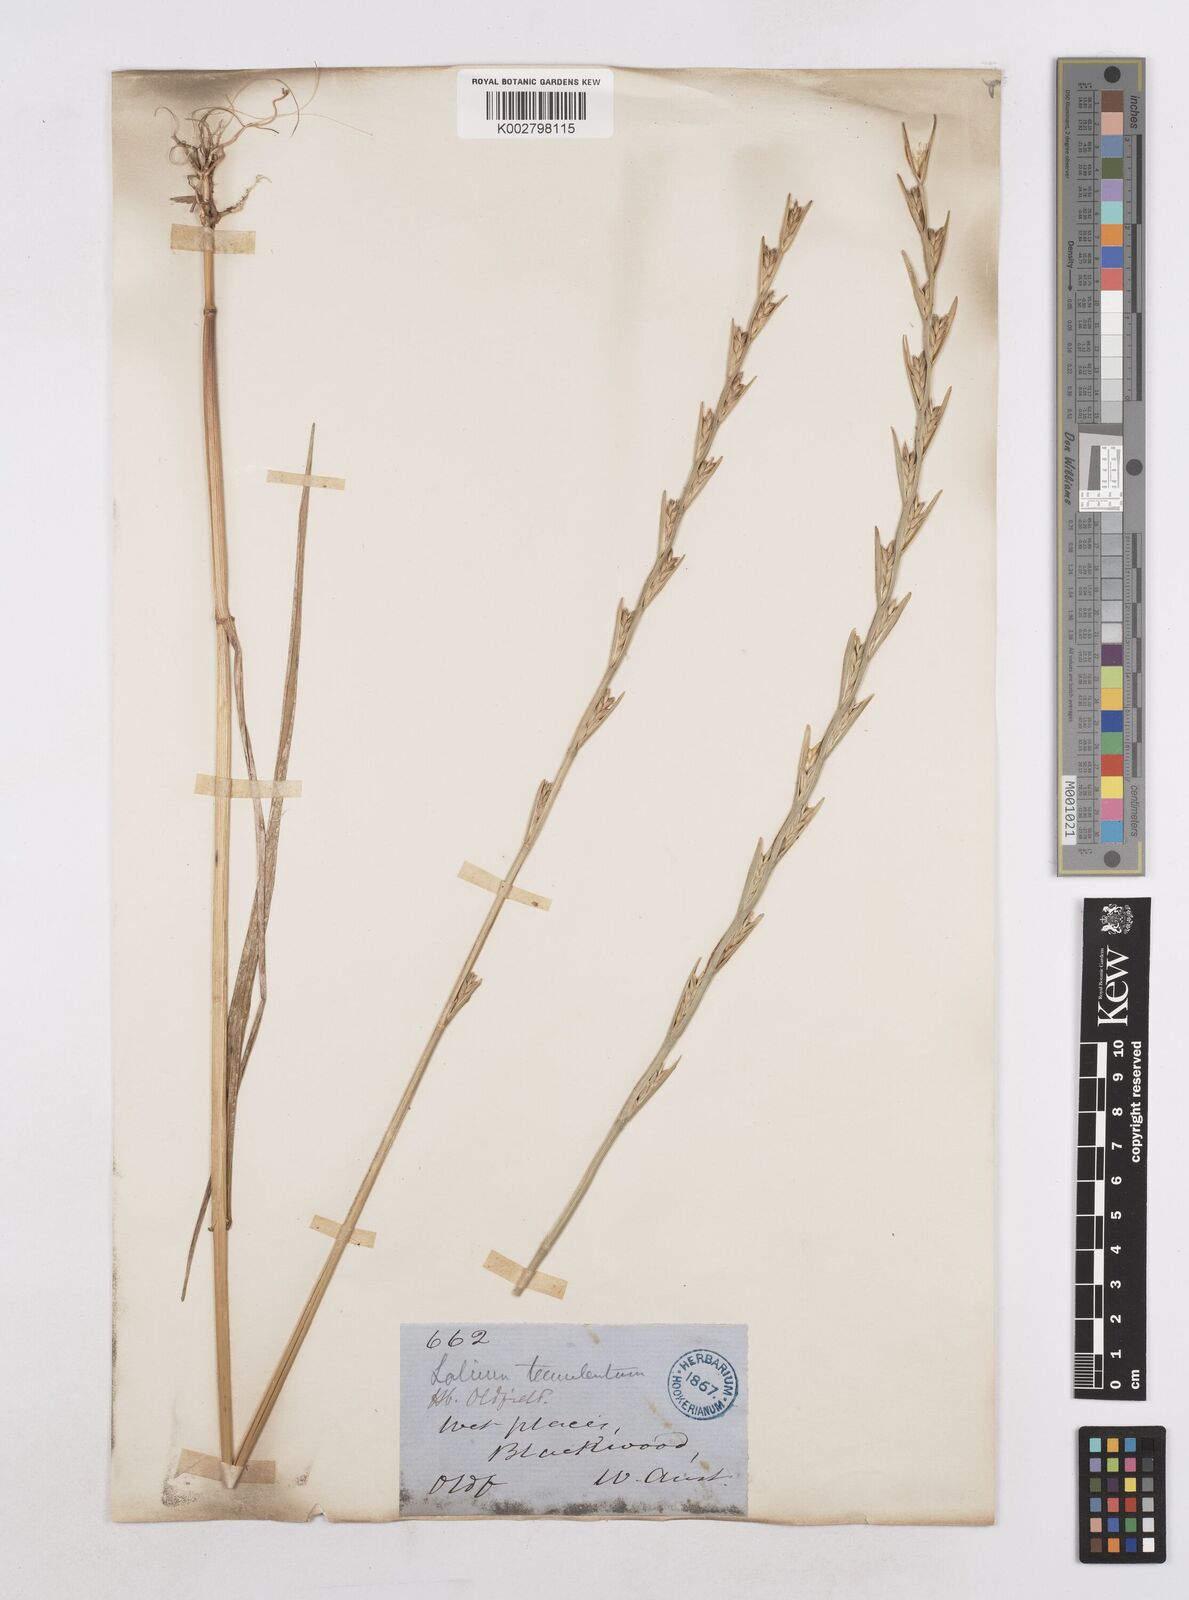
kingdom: Plantae
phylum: Tracheophyta
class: Liliopsida
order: Poales
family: Poaceae
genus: Lolium
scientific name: Lolium temulentum
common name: Darnel
